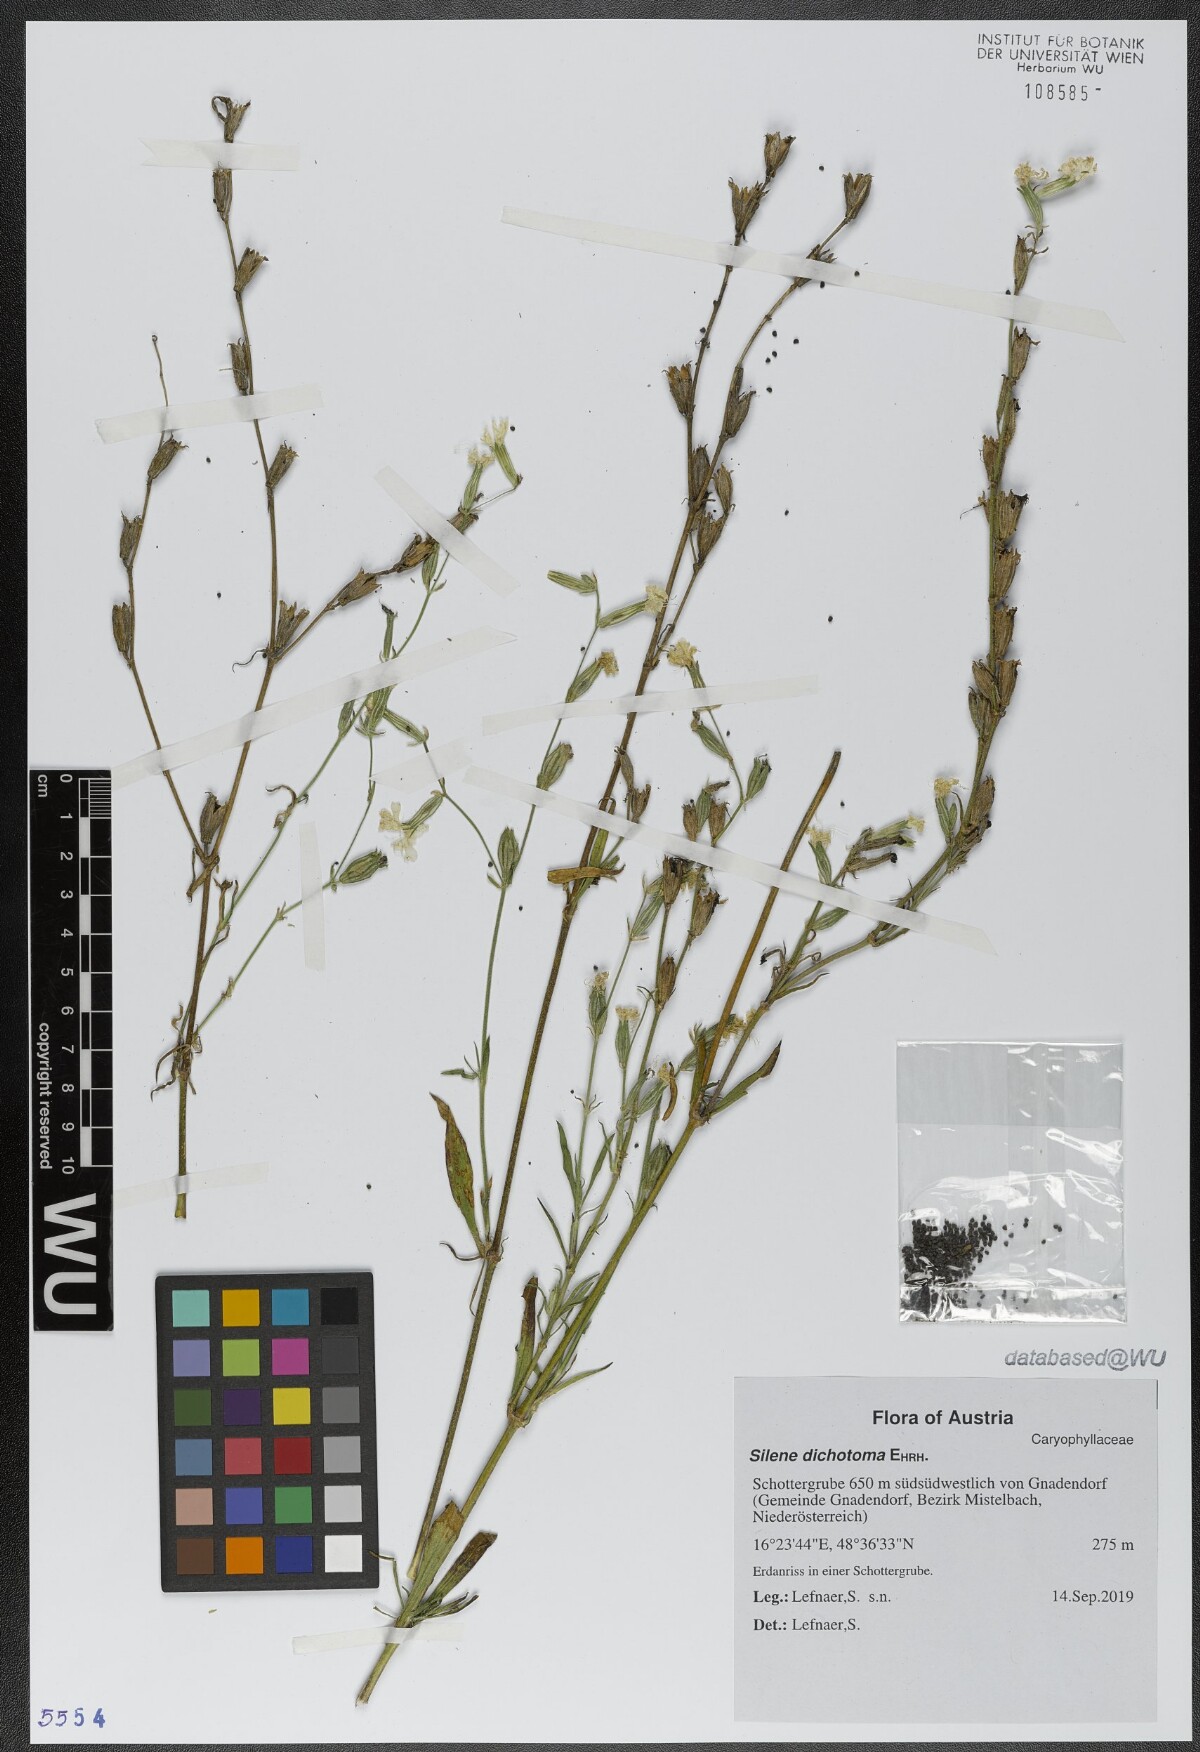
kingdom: Plantae
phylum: Tracheophyta
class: Magnoliopsida
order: Caryophyllales
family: Caryophyllaceae
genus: Silene
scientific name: Silene dichotoma
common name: Forked catchfly
